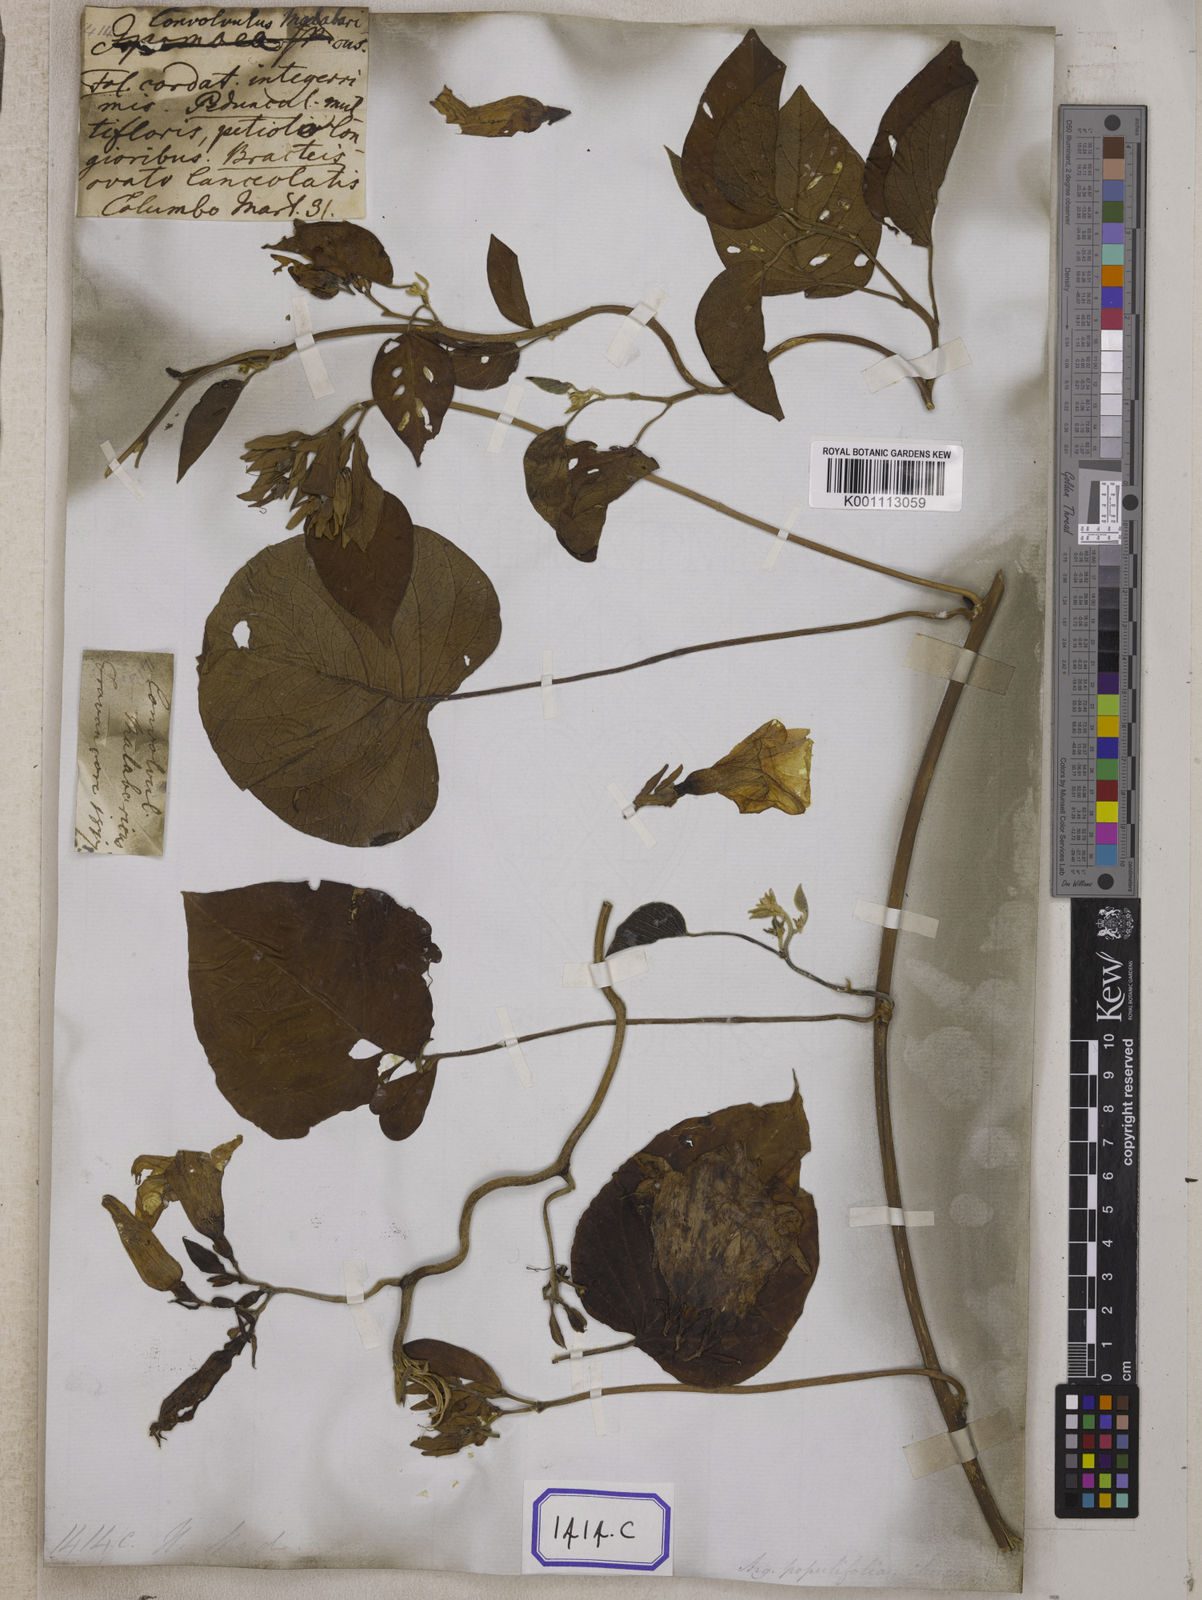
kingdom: Plantae
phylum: Tracheophyta
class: Magnoliopsida
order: Solanales
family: Convolvulaceae
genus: Argyreia
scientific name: Argyreia argentea
